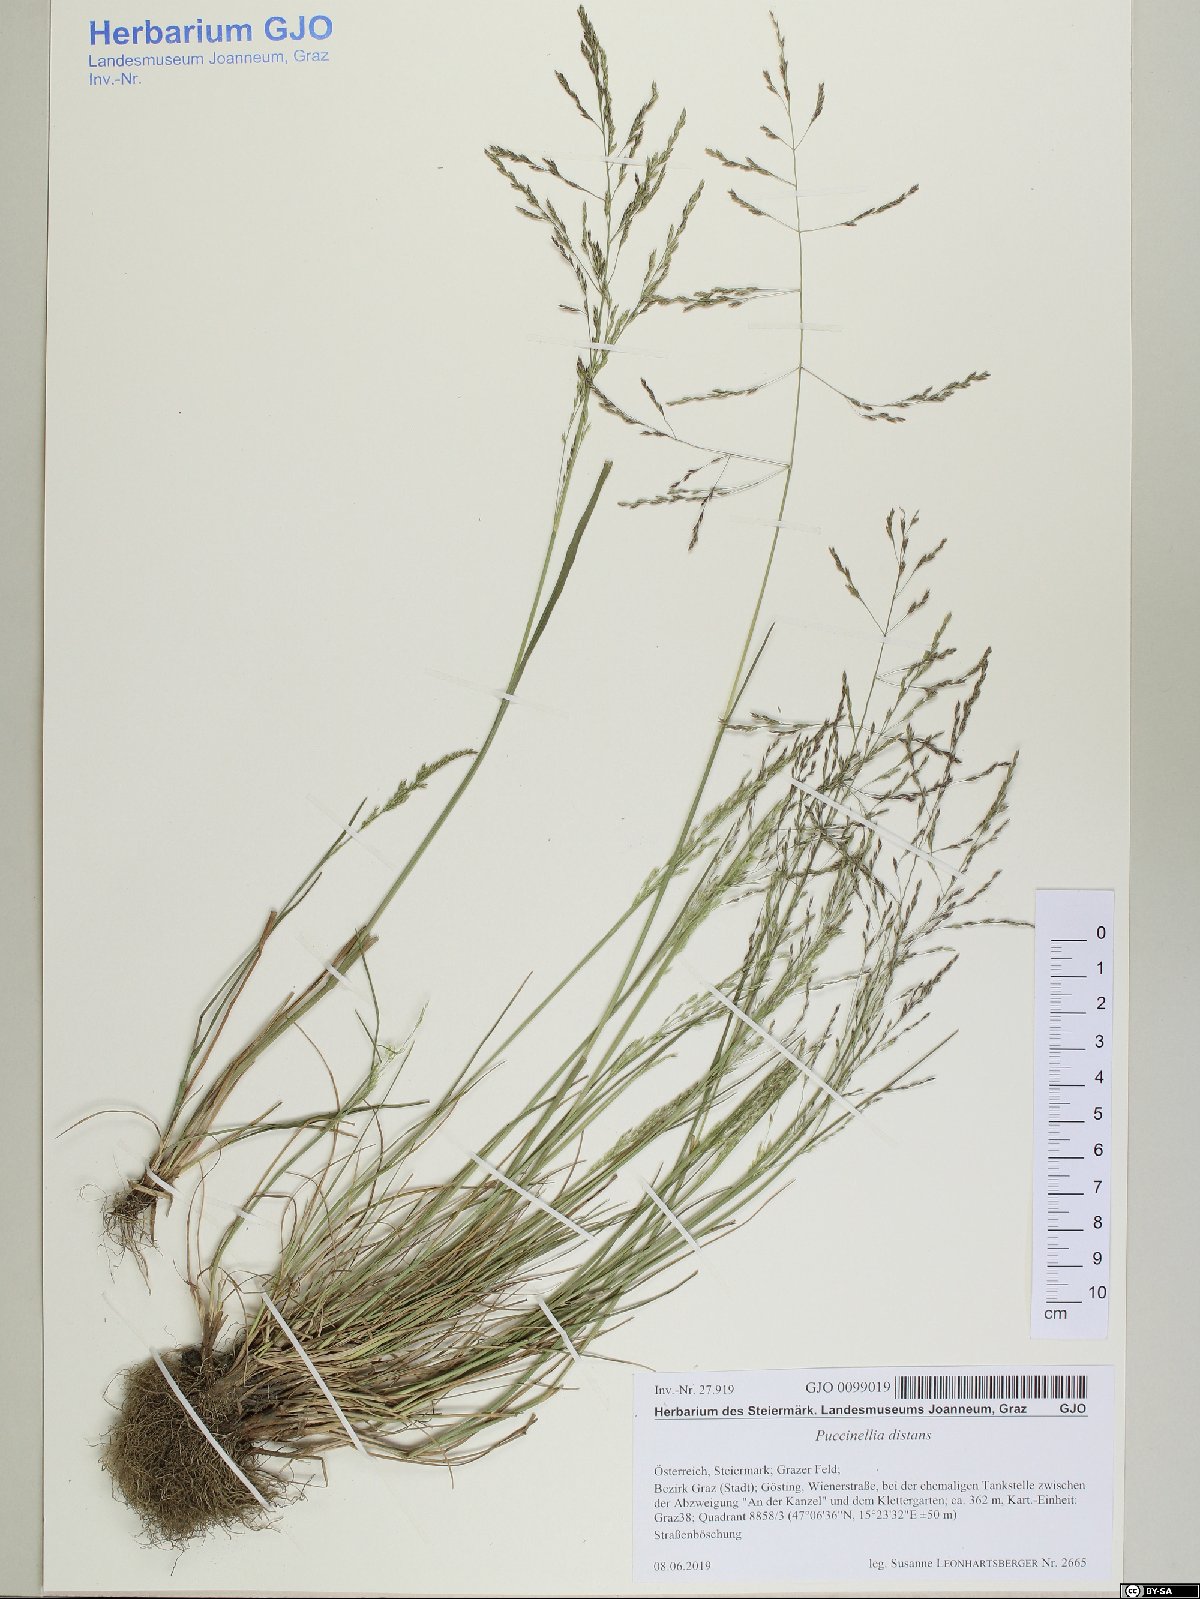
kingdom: Plantae
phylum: Tracheophyta
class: Liliopsida
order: Poales
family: Poaceae
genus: Puccinellia
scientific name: Puccinellia distans
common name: Weeping alkaligrass
